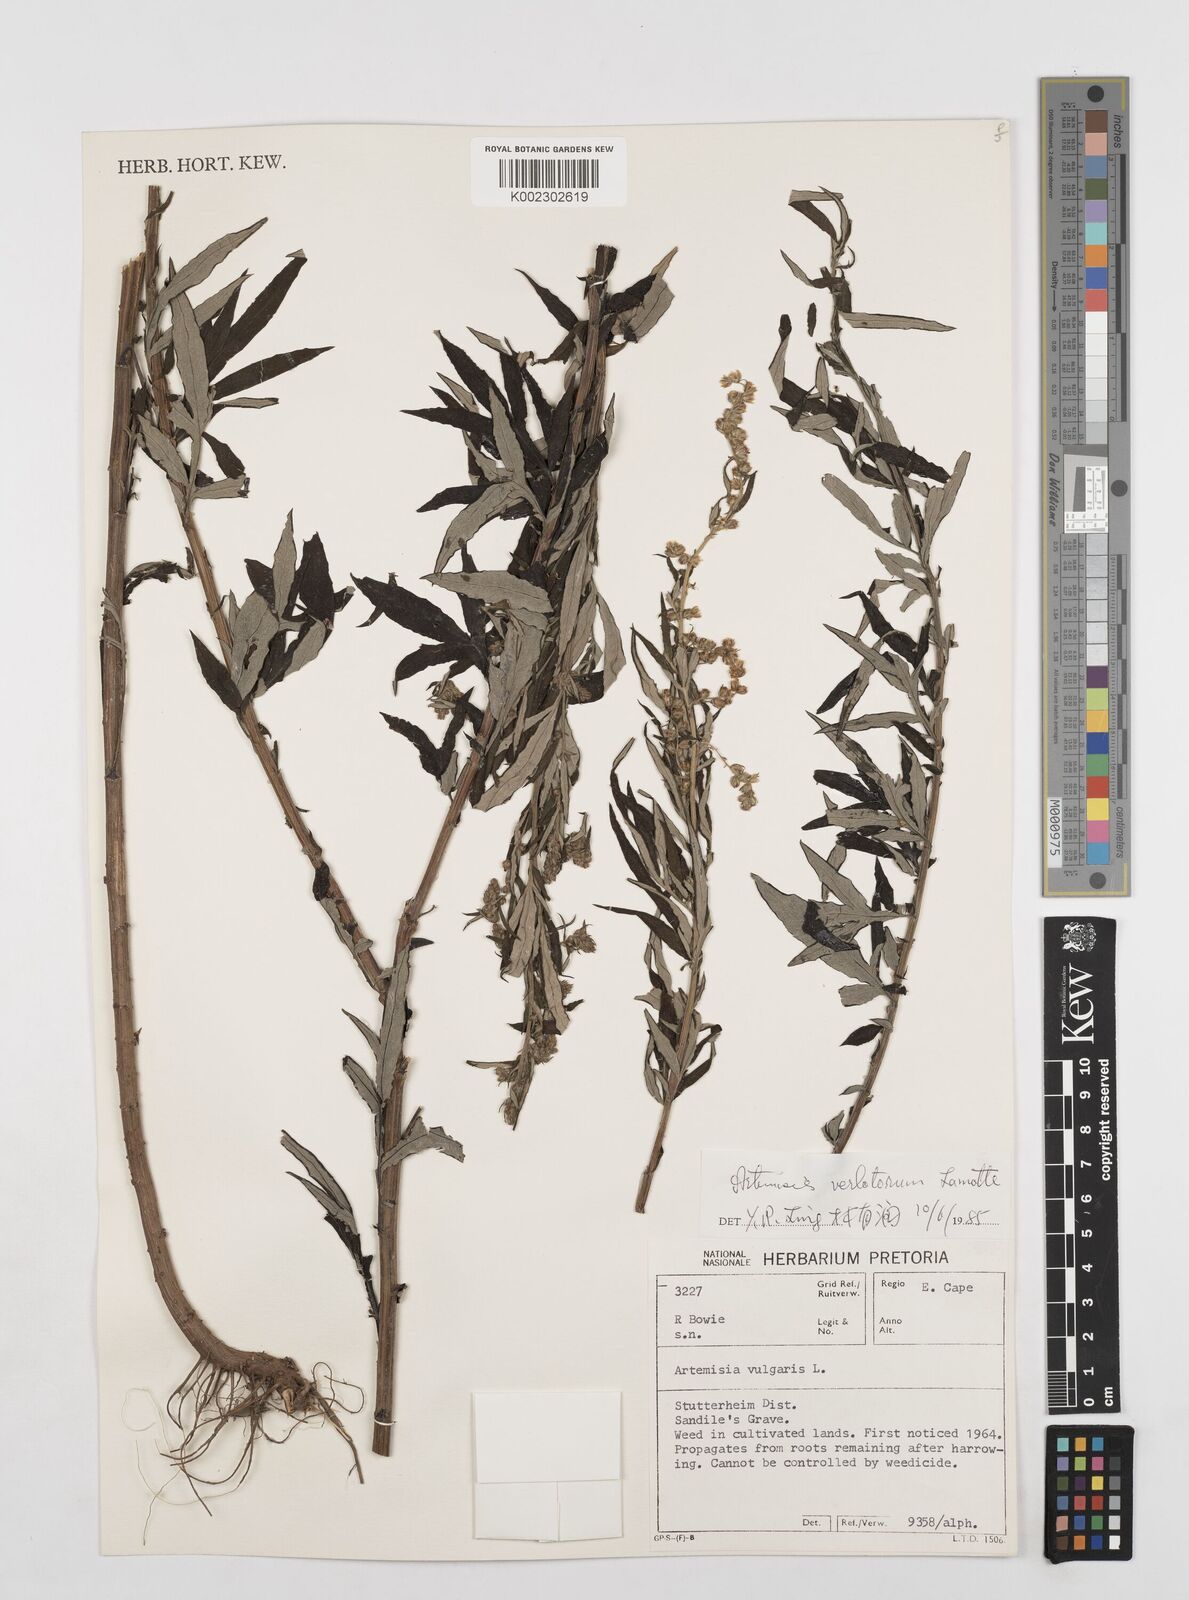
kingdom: Plantae
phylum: Tracheophyta
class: Magnoliopsida
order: Asterales
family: Asteraceae
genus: Artemisia
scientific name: Artemisia vulgaris
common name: Mugwort
